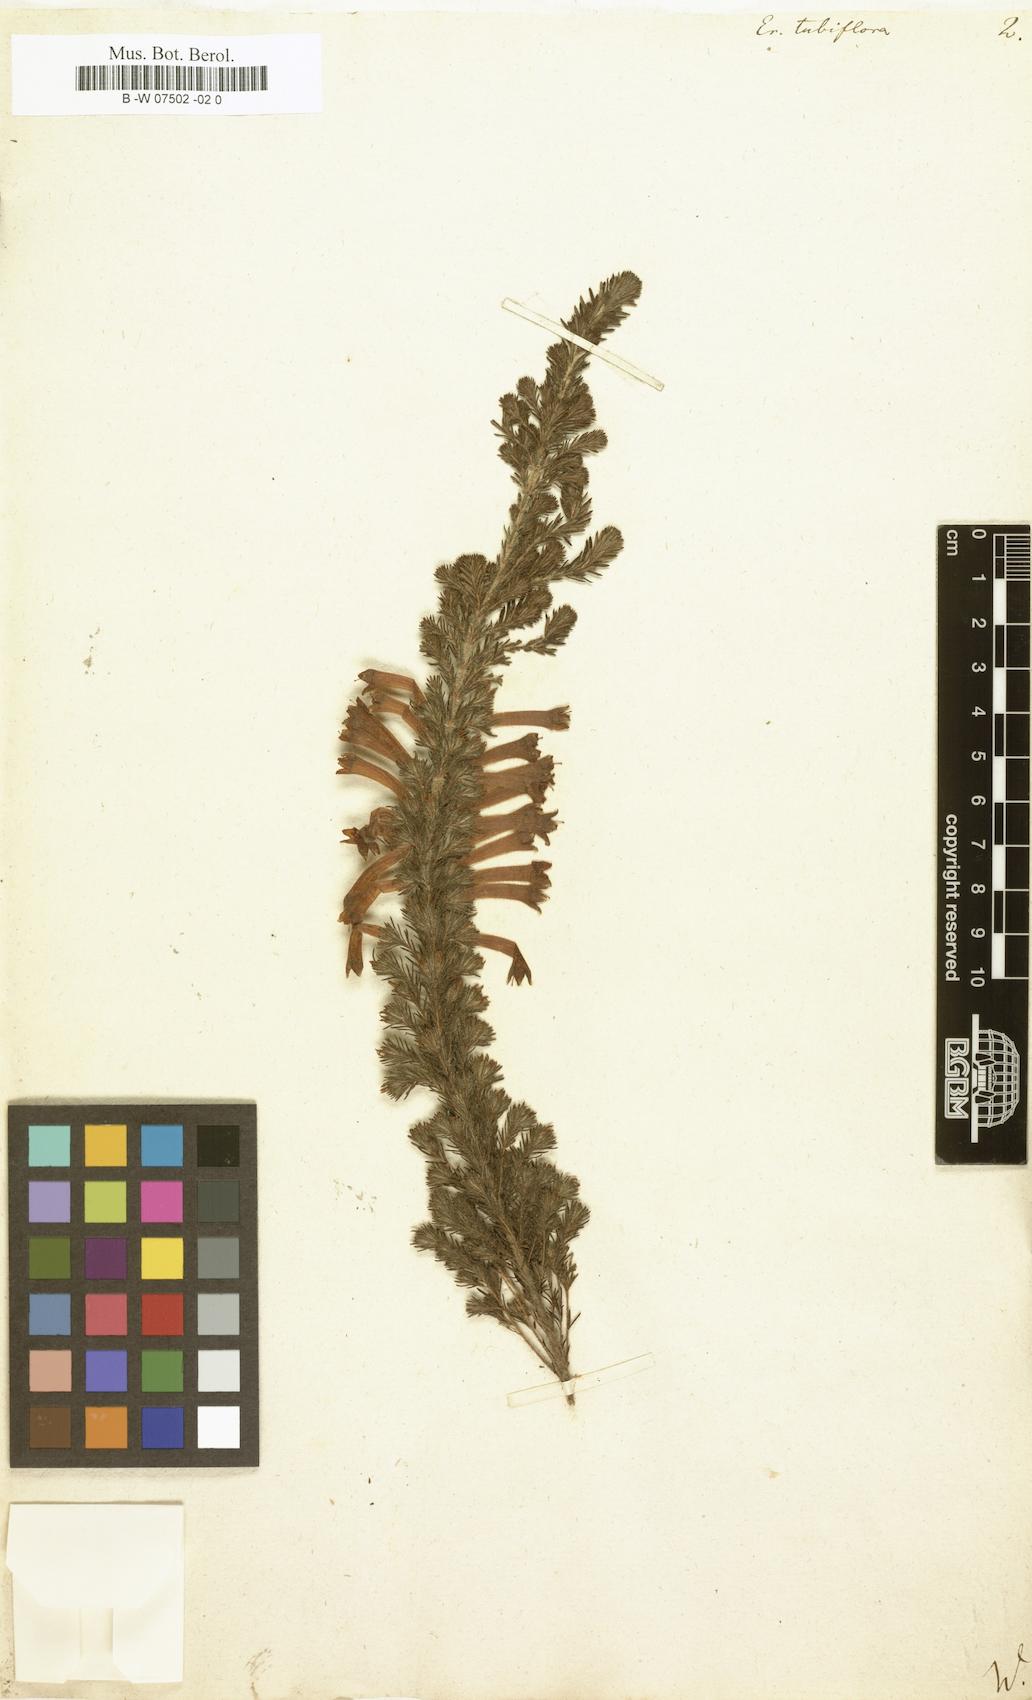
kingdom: Plantae
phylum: Tracheophyta
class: Magnoliopsida
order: Ericales
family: Ericaceae
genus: Erica
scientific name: Erica curviflora
